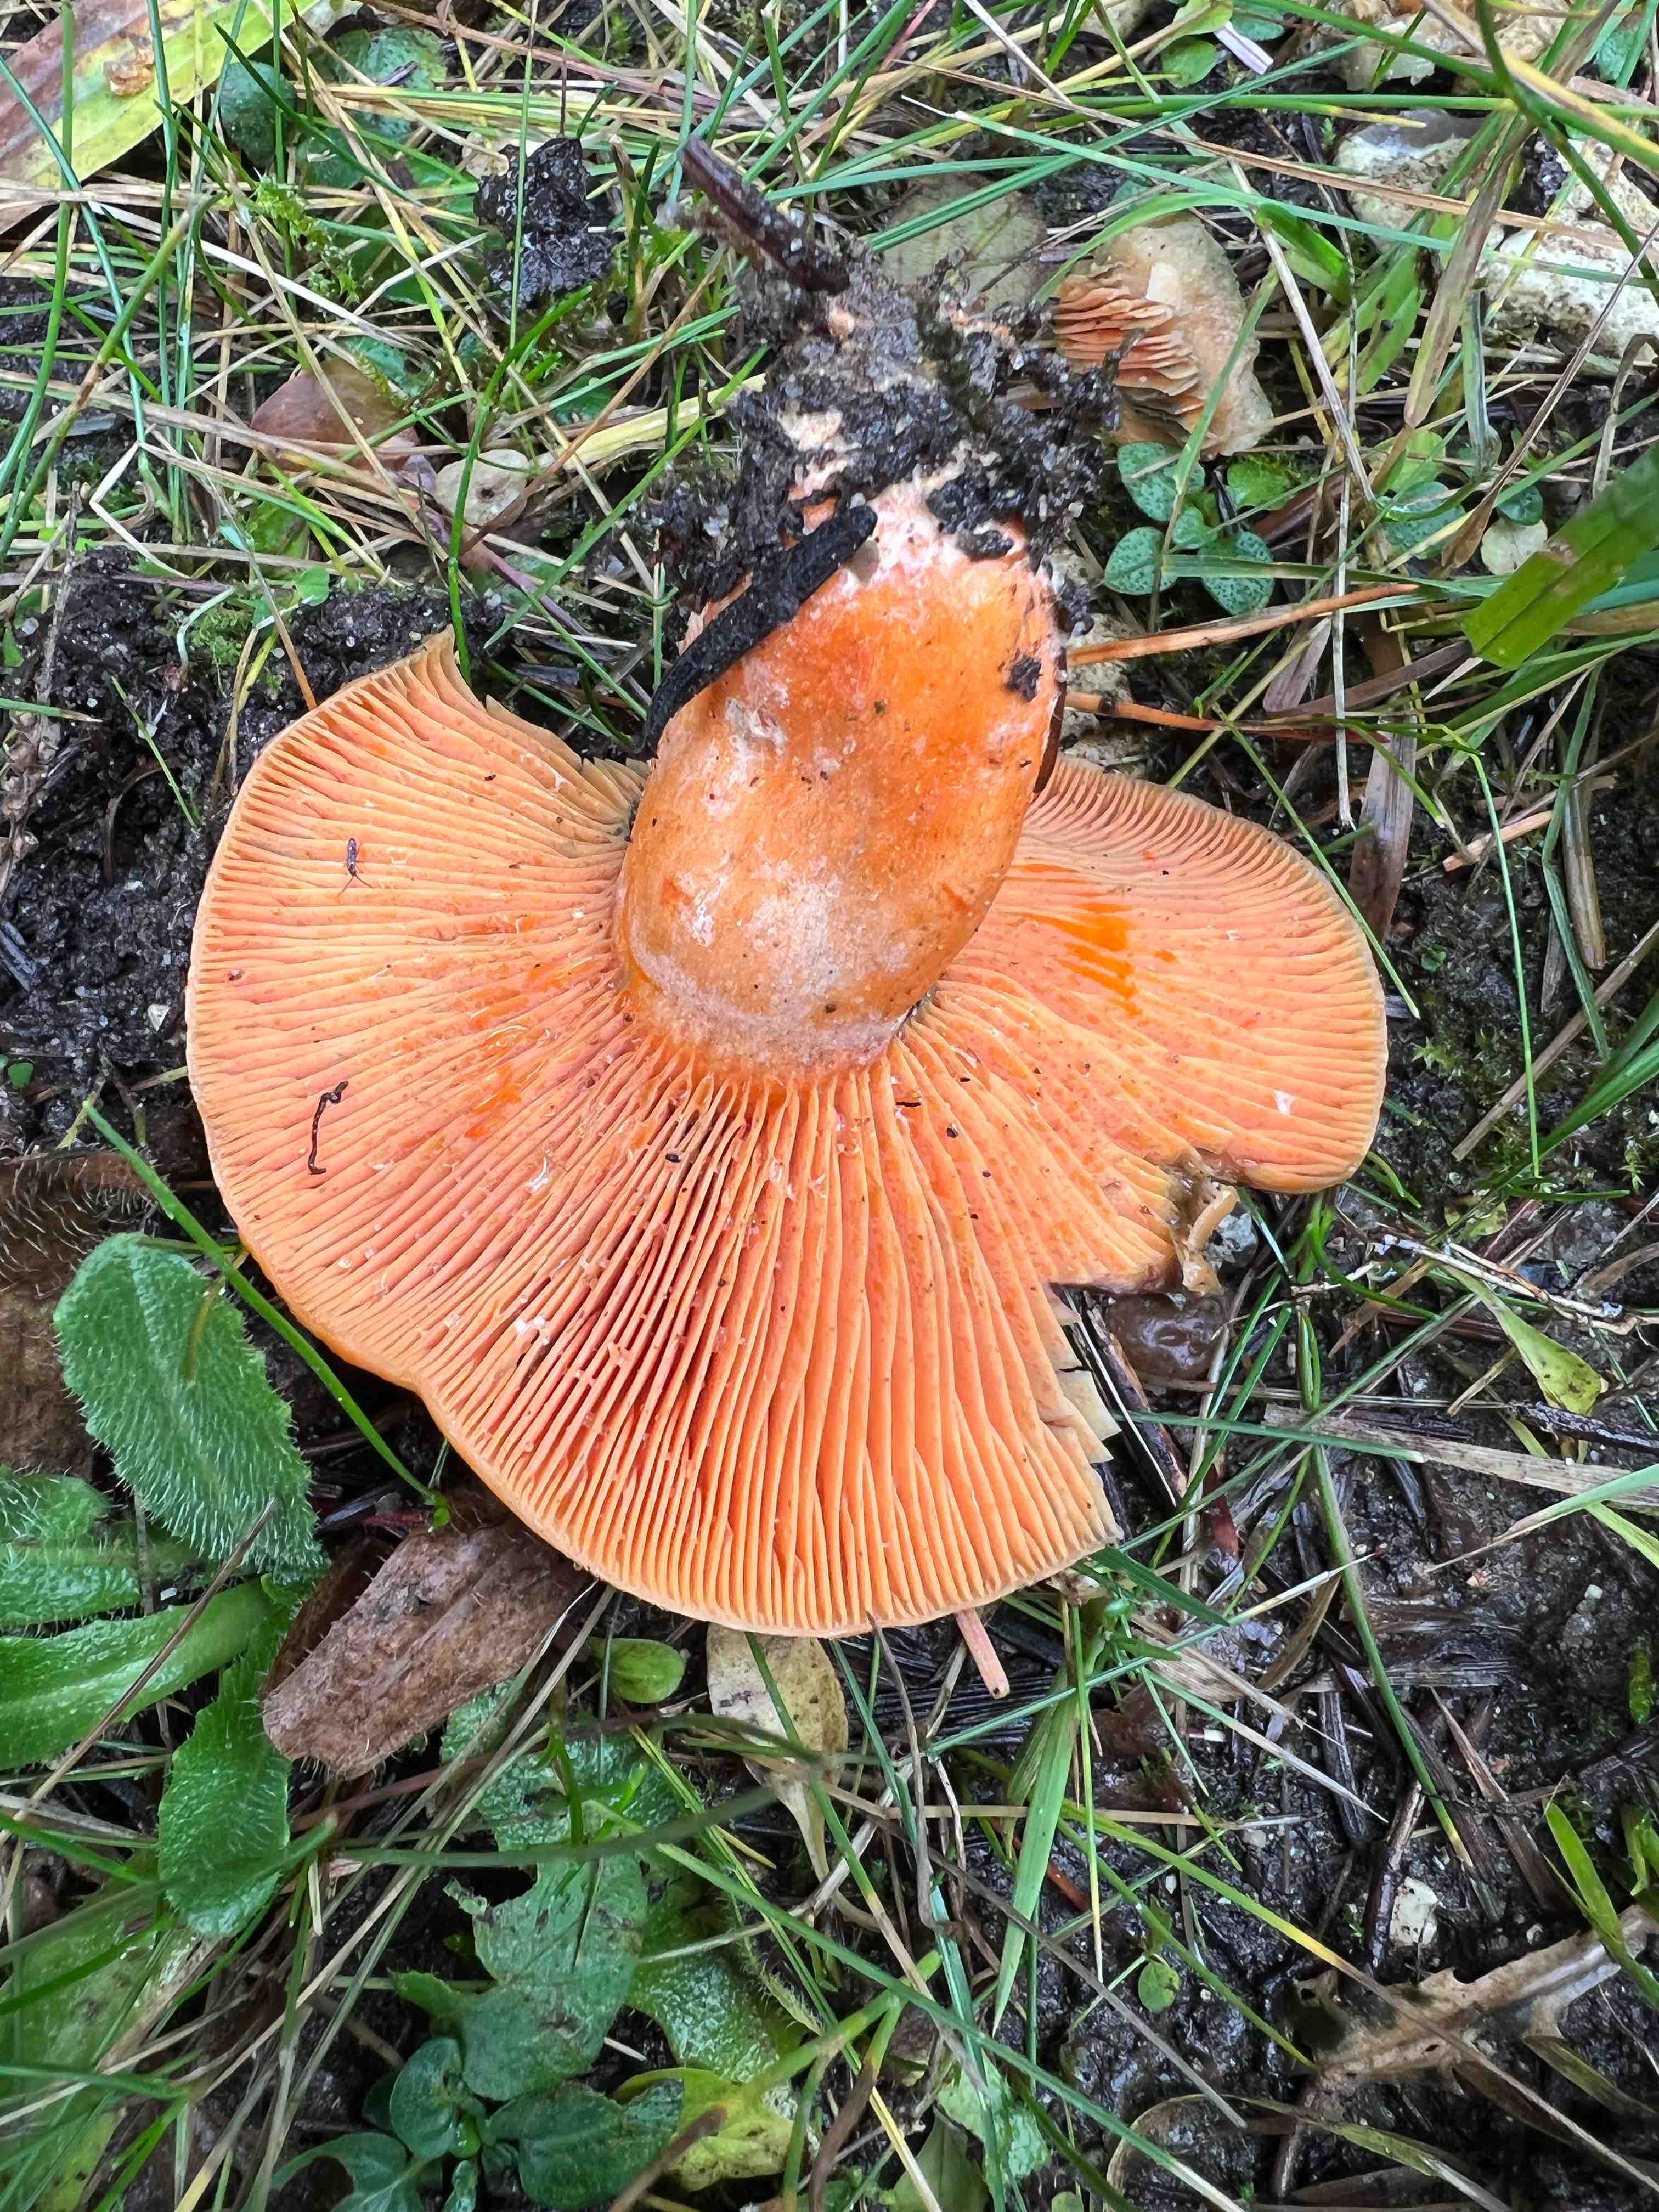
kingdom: Fungi
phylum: Basidiomycota
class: Agaricomycetes
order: Russulales
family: Russulaceae
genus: Lactarius
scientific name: Lactarius deterrimus
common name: gran-mælkehat
